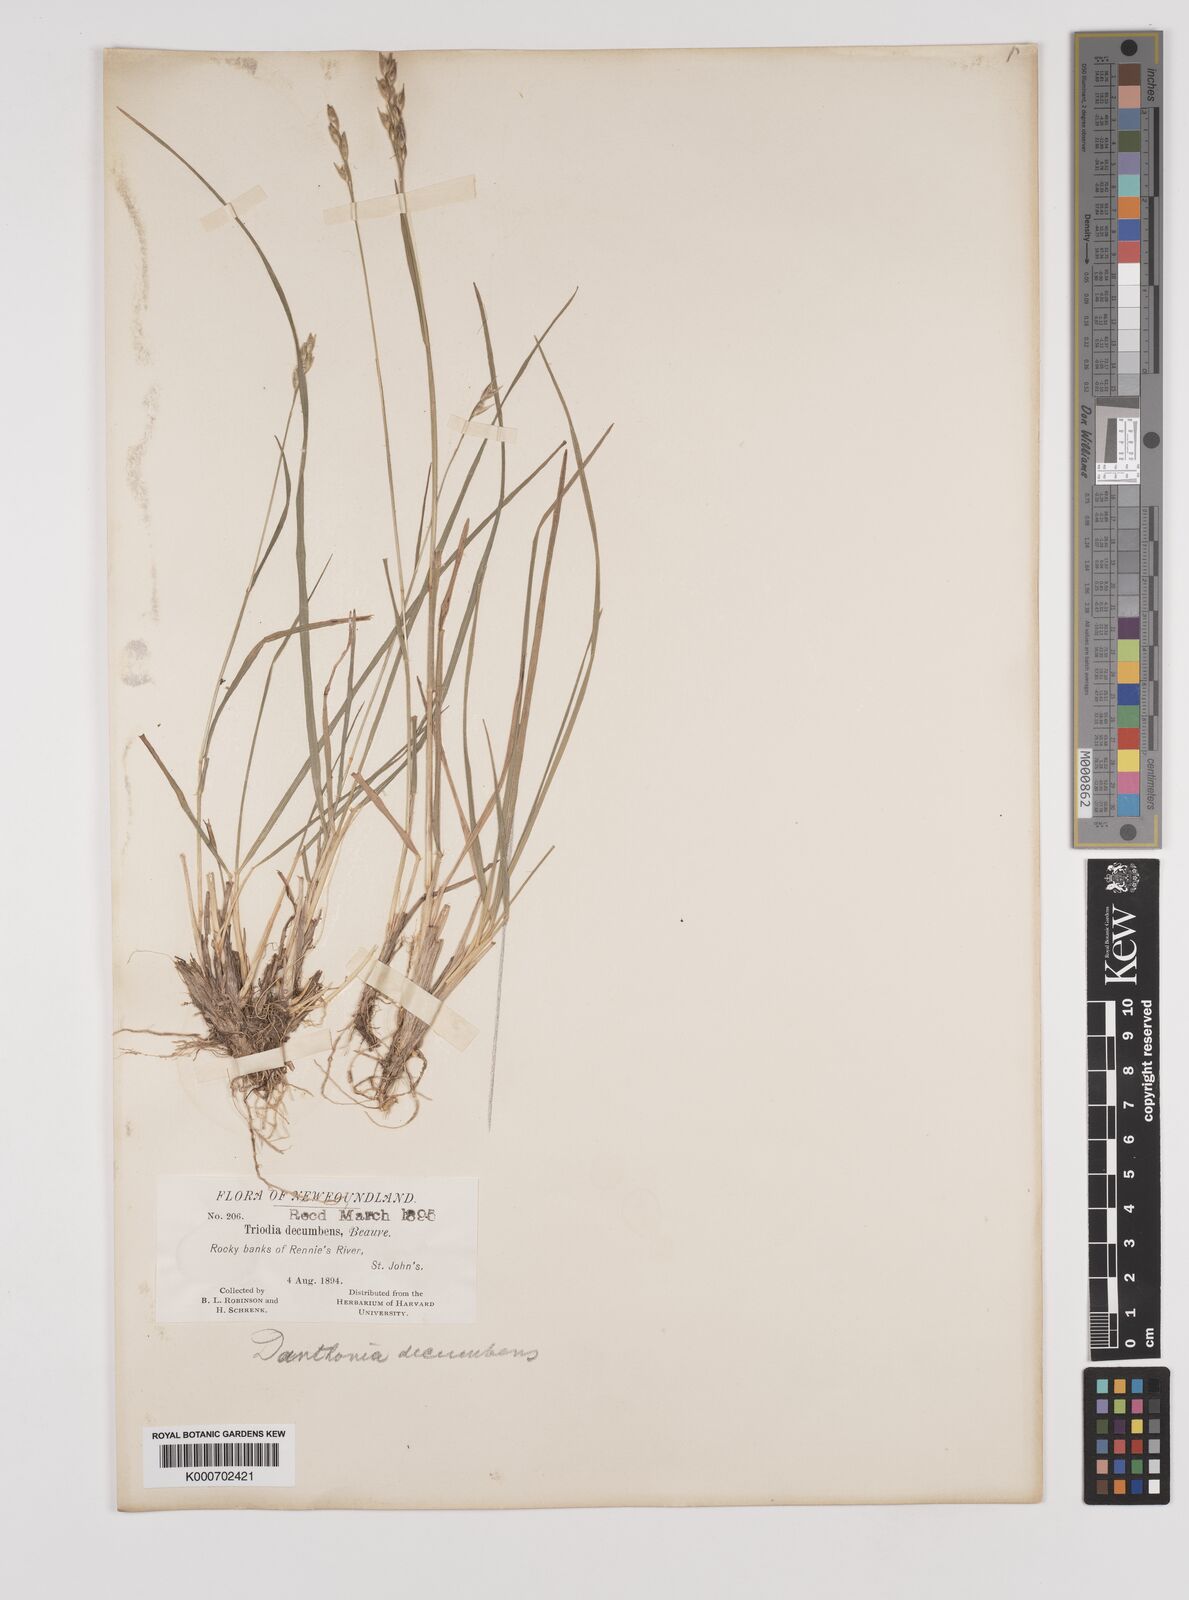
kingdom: Plantae
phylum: Tracheophyta
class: Liliopsida
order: Poales
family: Poaceae
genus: Danthonia
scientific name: Danthonia decumbens
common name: Common heathgrass
